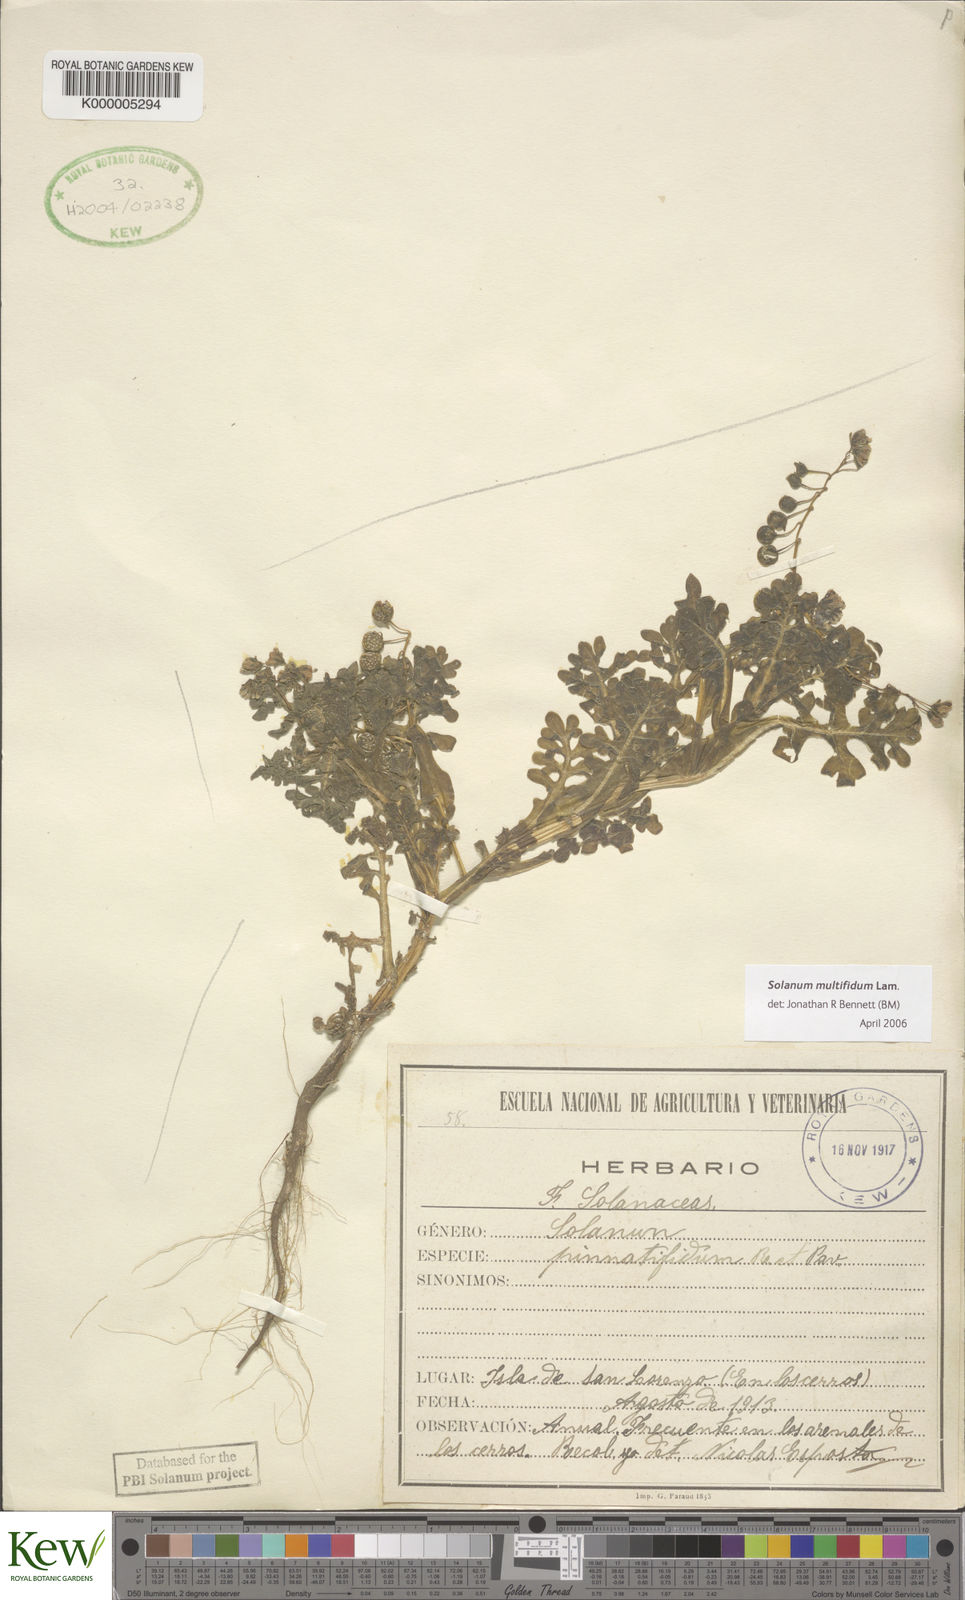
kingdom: Plantae
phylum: Tracheophyta
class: Magnoliopsida
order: Solanales
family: Solanaceae
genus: Solanum
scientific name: Solanum multifidum
